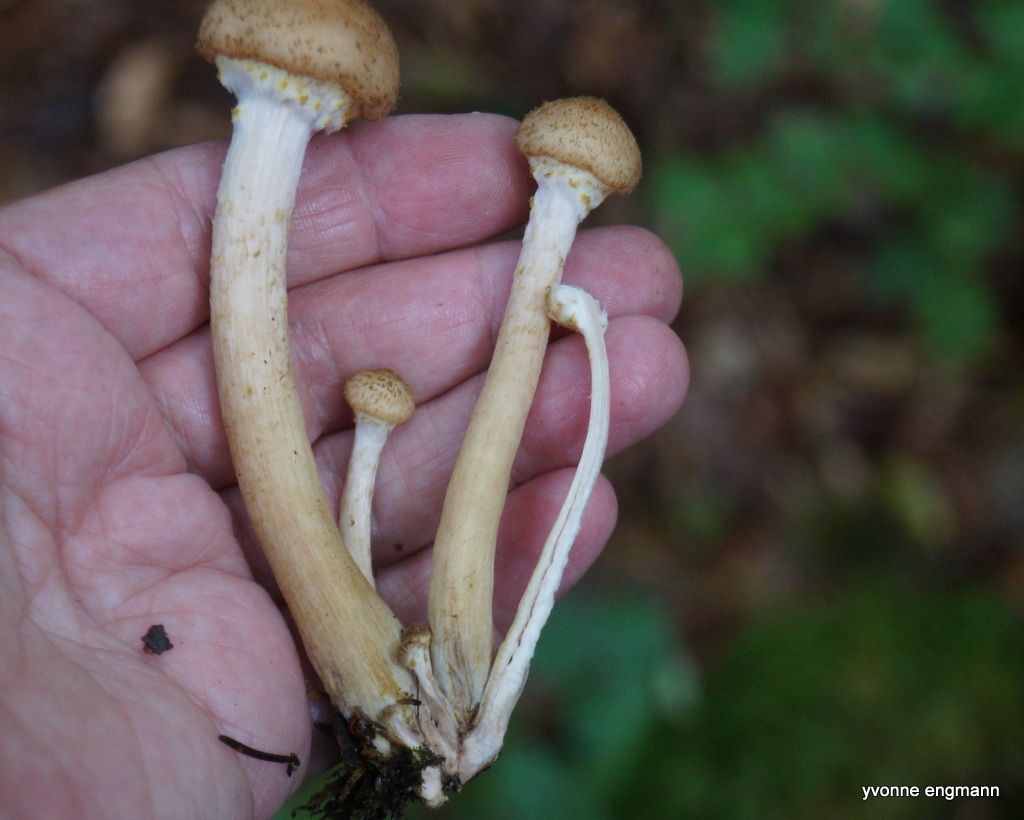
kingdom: Fungi
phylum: Basidiomycota
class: Agaricomycetes
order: Agaricales
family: Physalacriaceae
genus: Armillaria
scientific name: Armillaria
